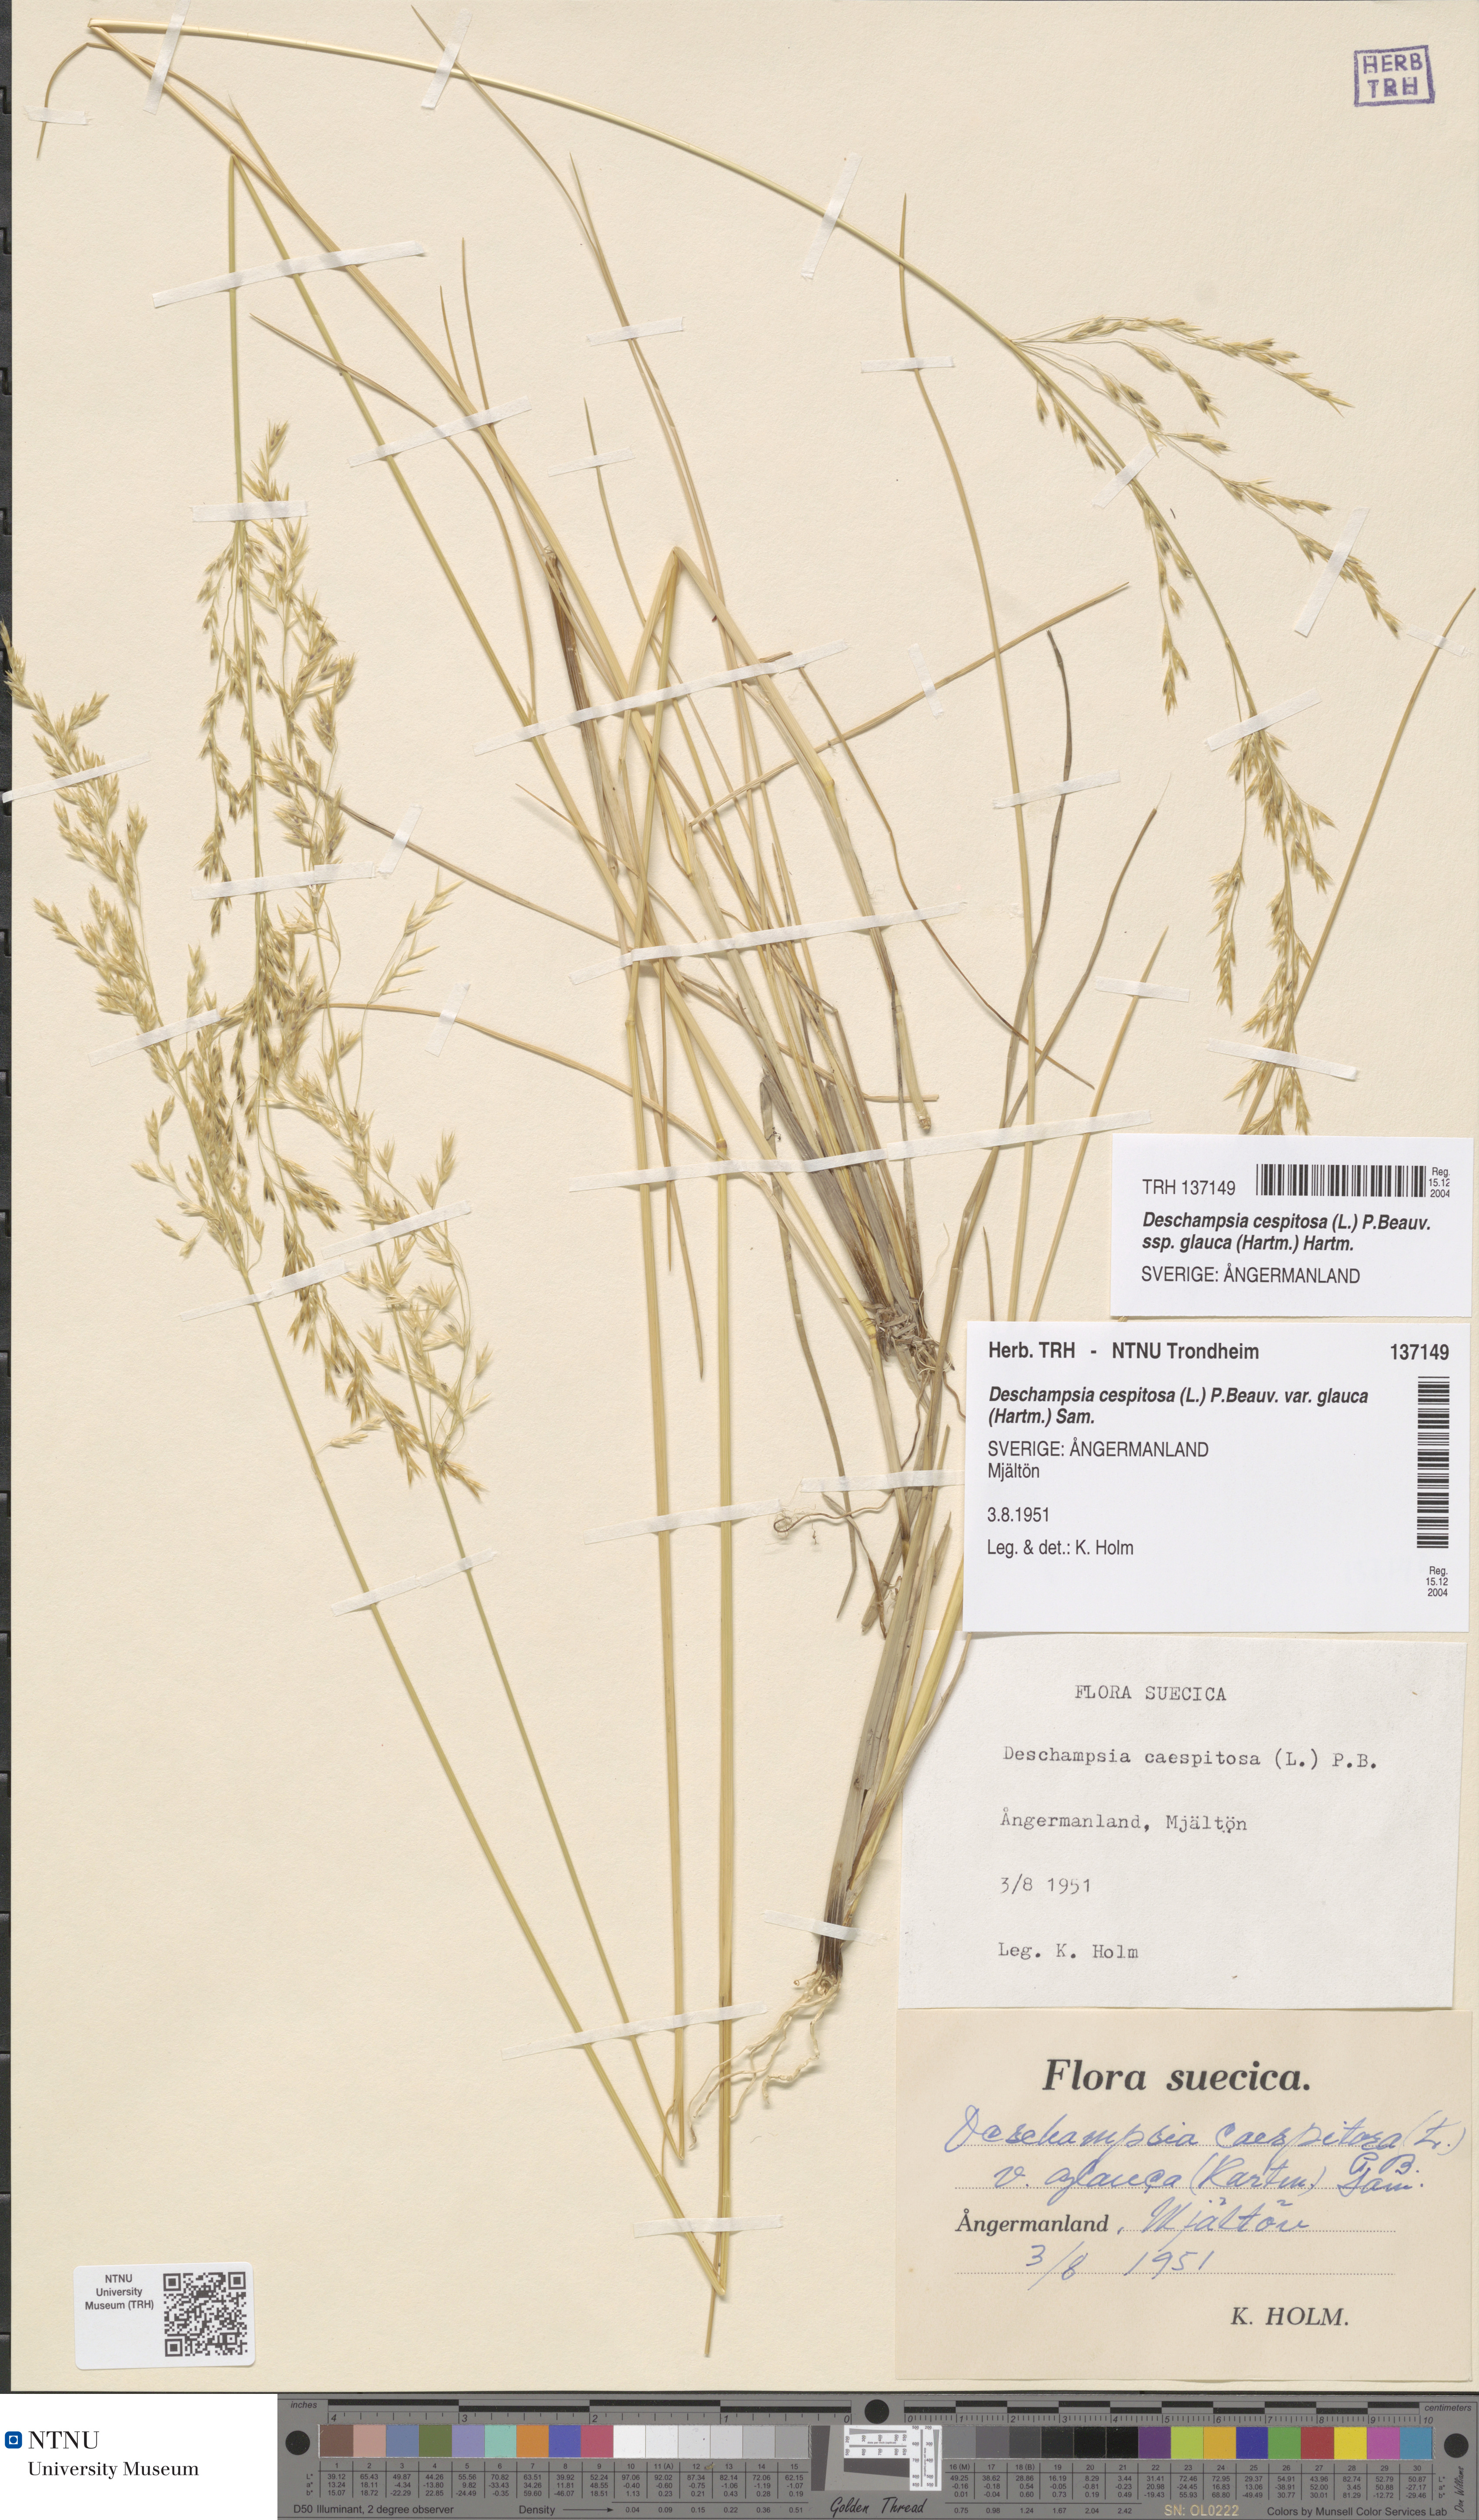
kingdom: Plantae
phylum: Tracheophyta
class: Liliopsida
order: Poales
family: Poaceae
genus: Deschampsia
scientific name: Deschampsia cespitosa
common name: Tufted hair-grass
